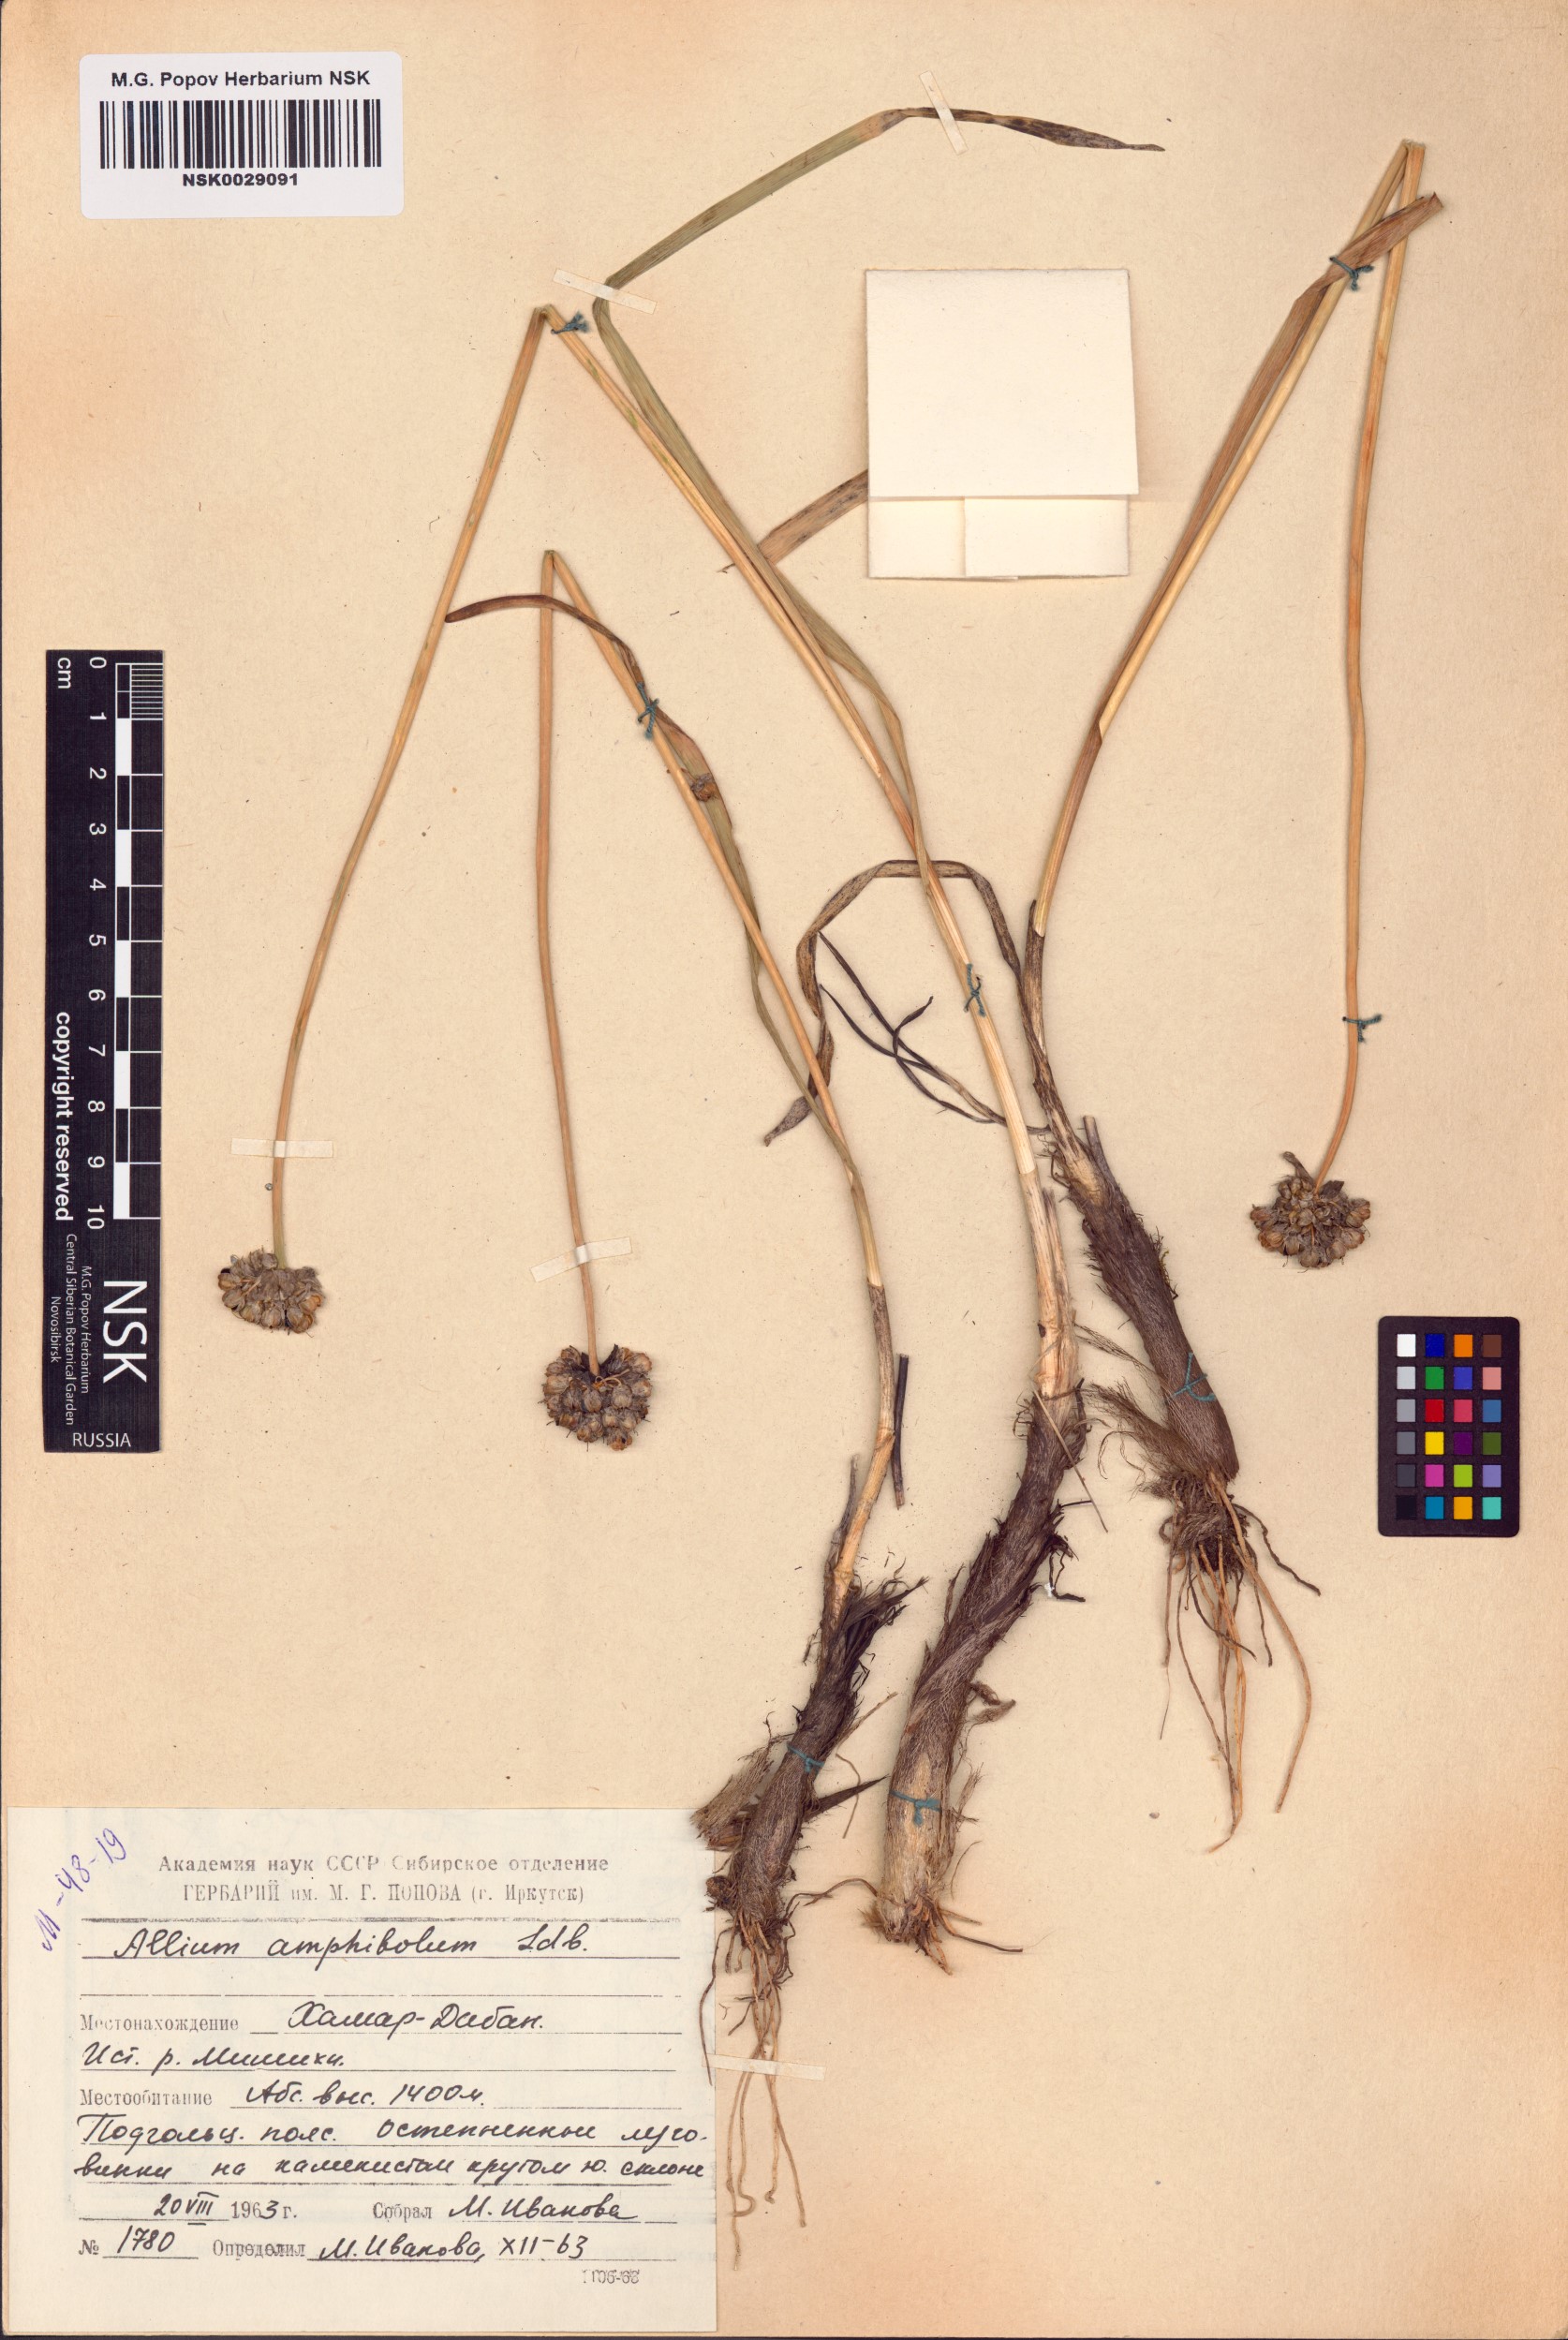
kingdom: Plantae
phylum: Tracheophyta
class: Liliopsida
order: Asparagales
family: Amaryllidaceae
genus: Allium
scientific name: Allium amphibolum
